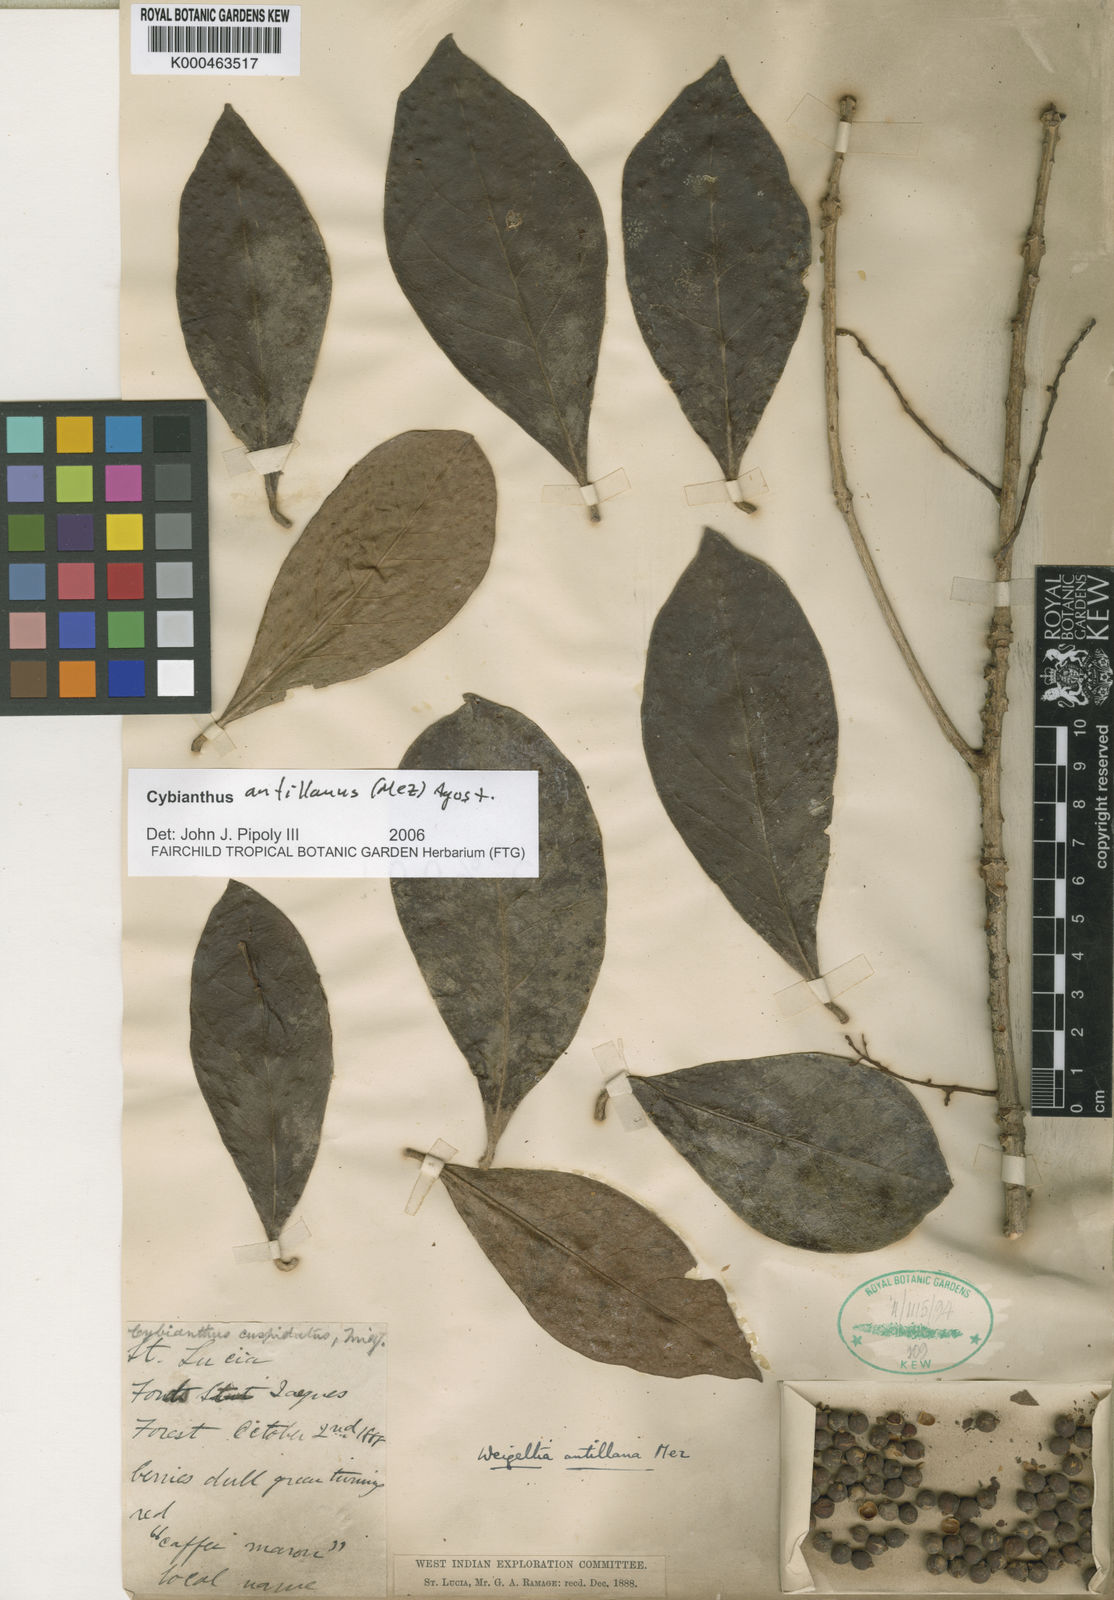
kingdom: Plantae
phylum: Tracheophyta
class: Magnoliopsida
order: Ericales
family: Primulaceae
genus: Cybianthus
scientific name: Cybianthus antillanus
